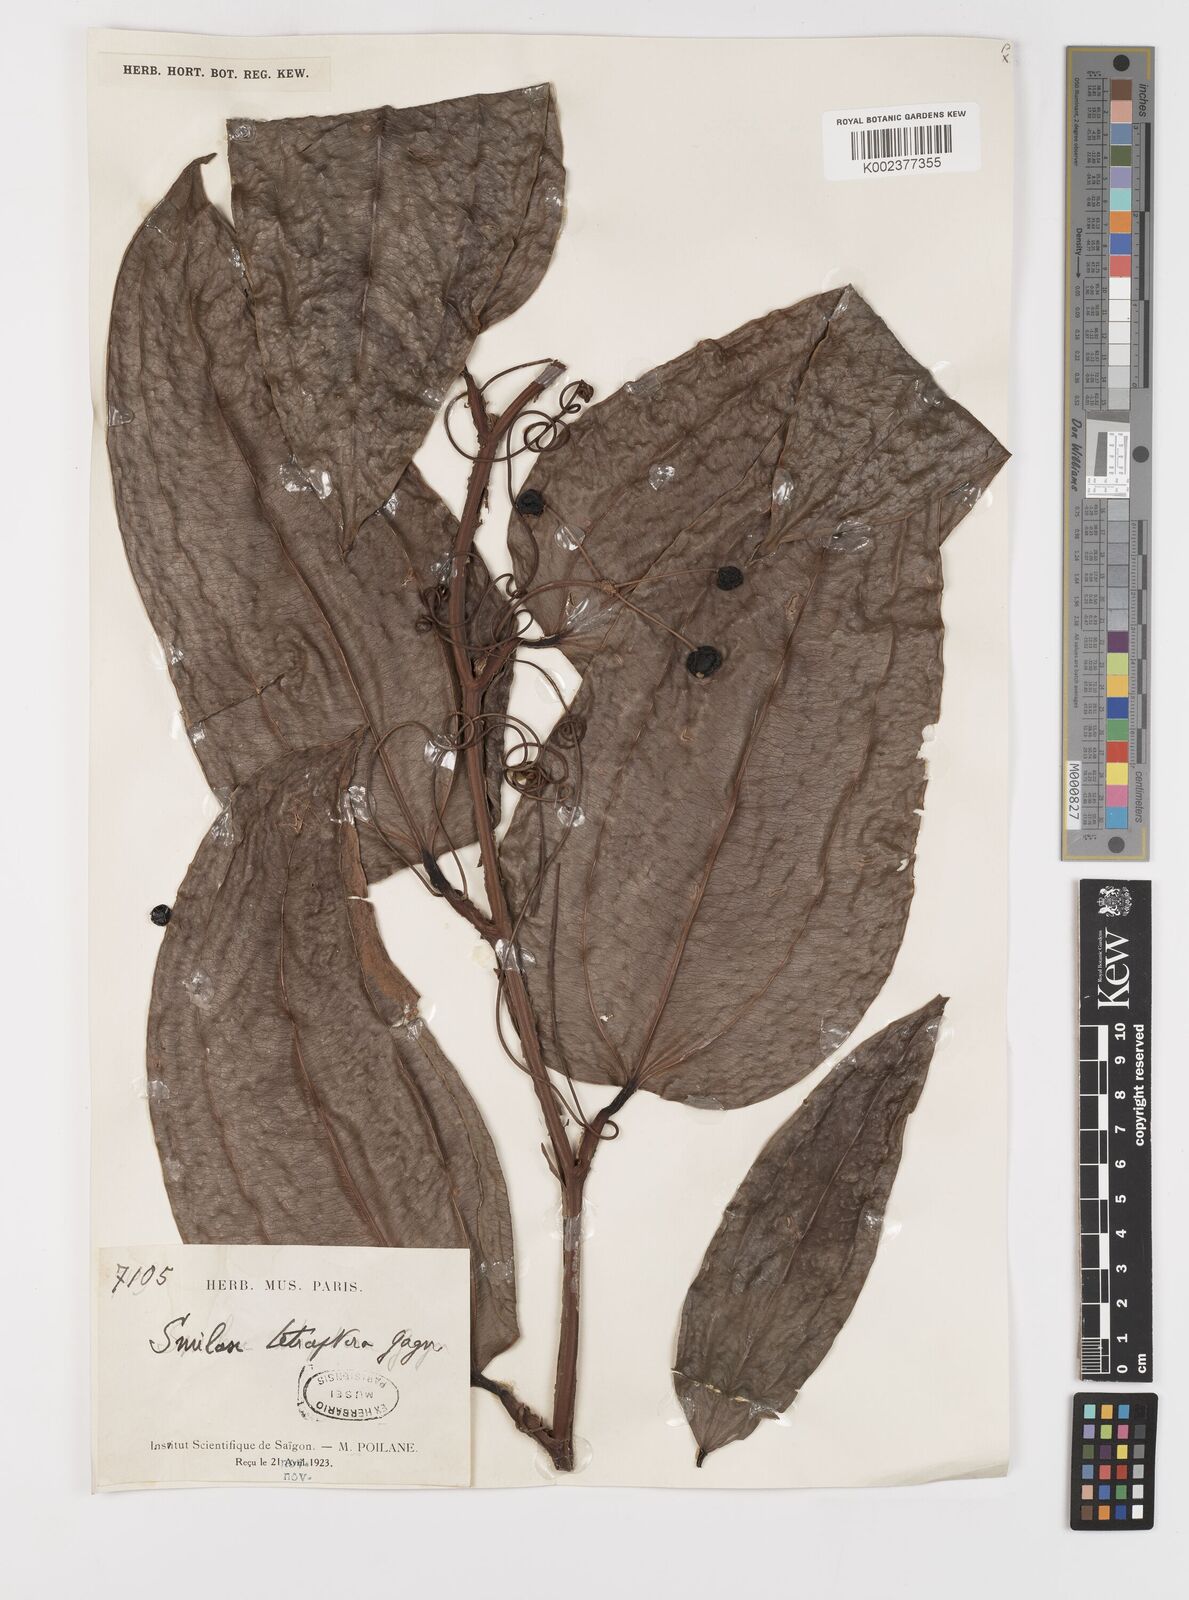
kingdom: Plantae
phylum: Tracheophyta
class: Liliopsida
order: Liliales
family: Smilacaceae
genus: Smilax
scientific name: Smilax gagnepainii
